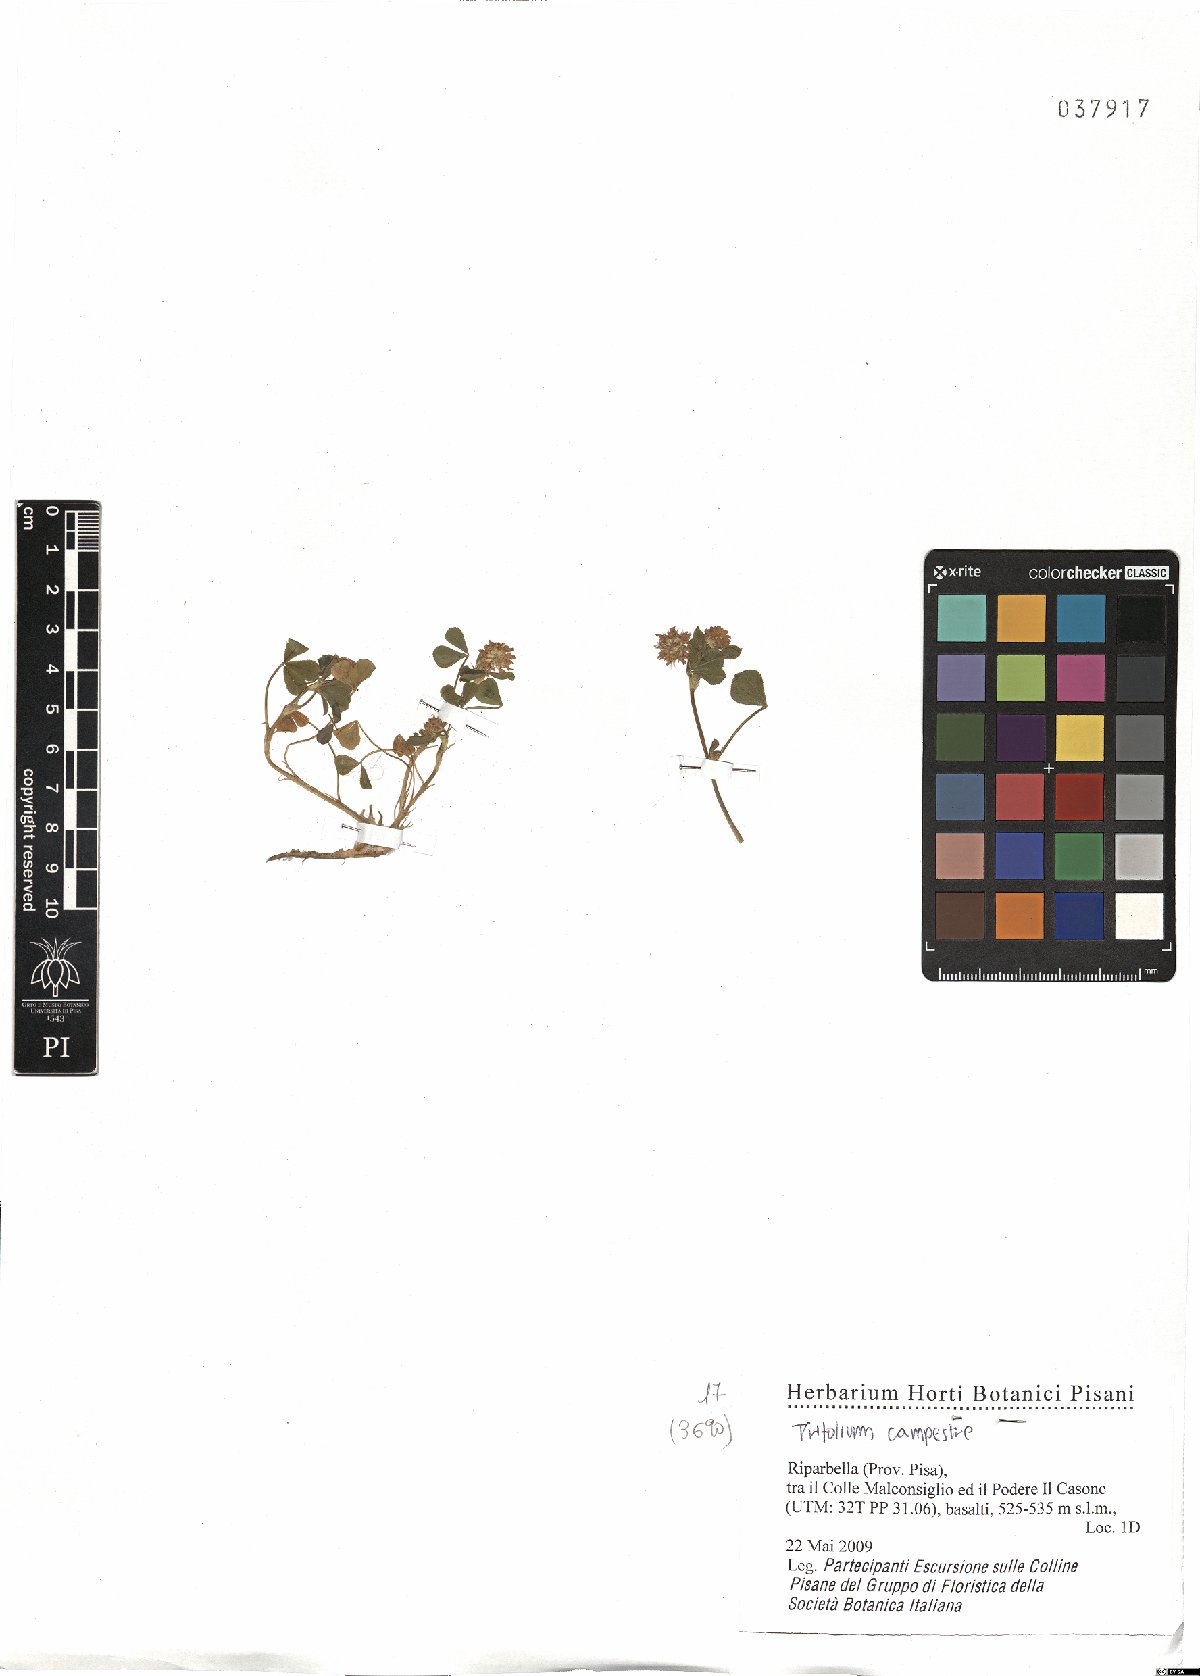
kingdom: Plantae
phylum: Tracheophyta
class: Magnoliopsida
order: Fabales
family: Fabaceae
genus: Trifolium
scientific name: Trifolium campestre
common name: Field clover
